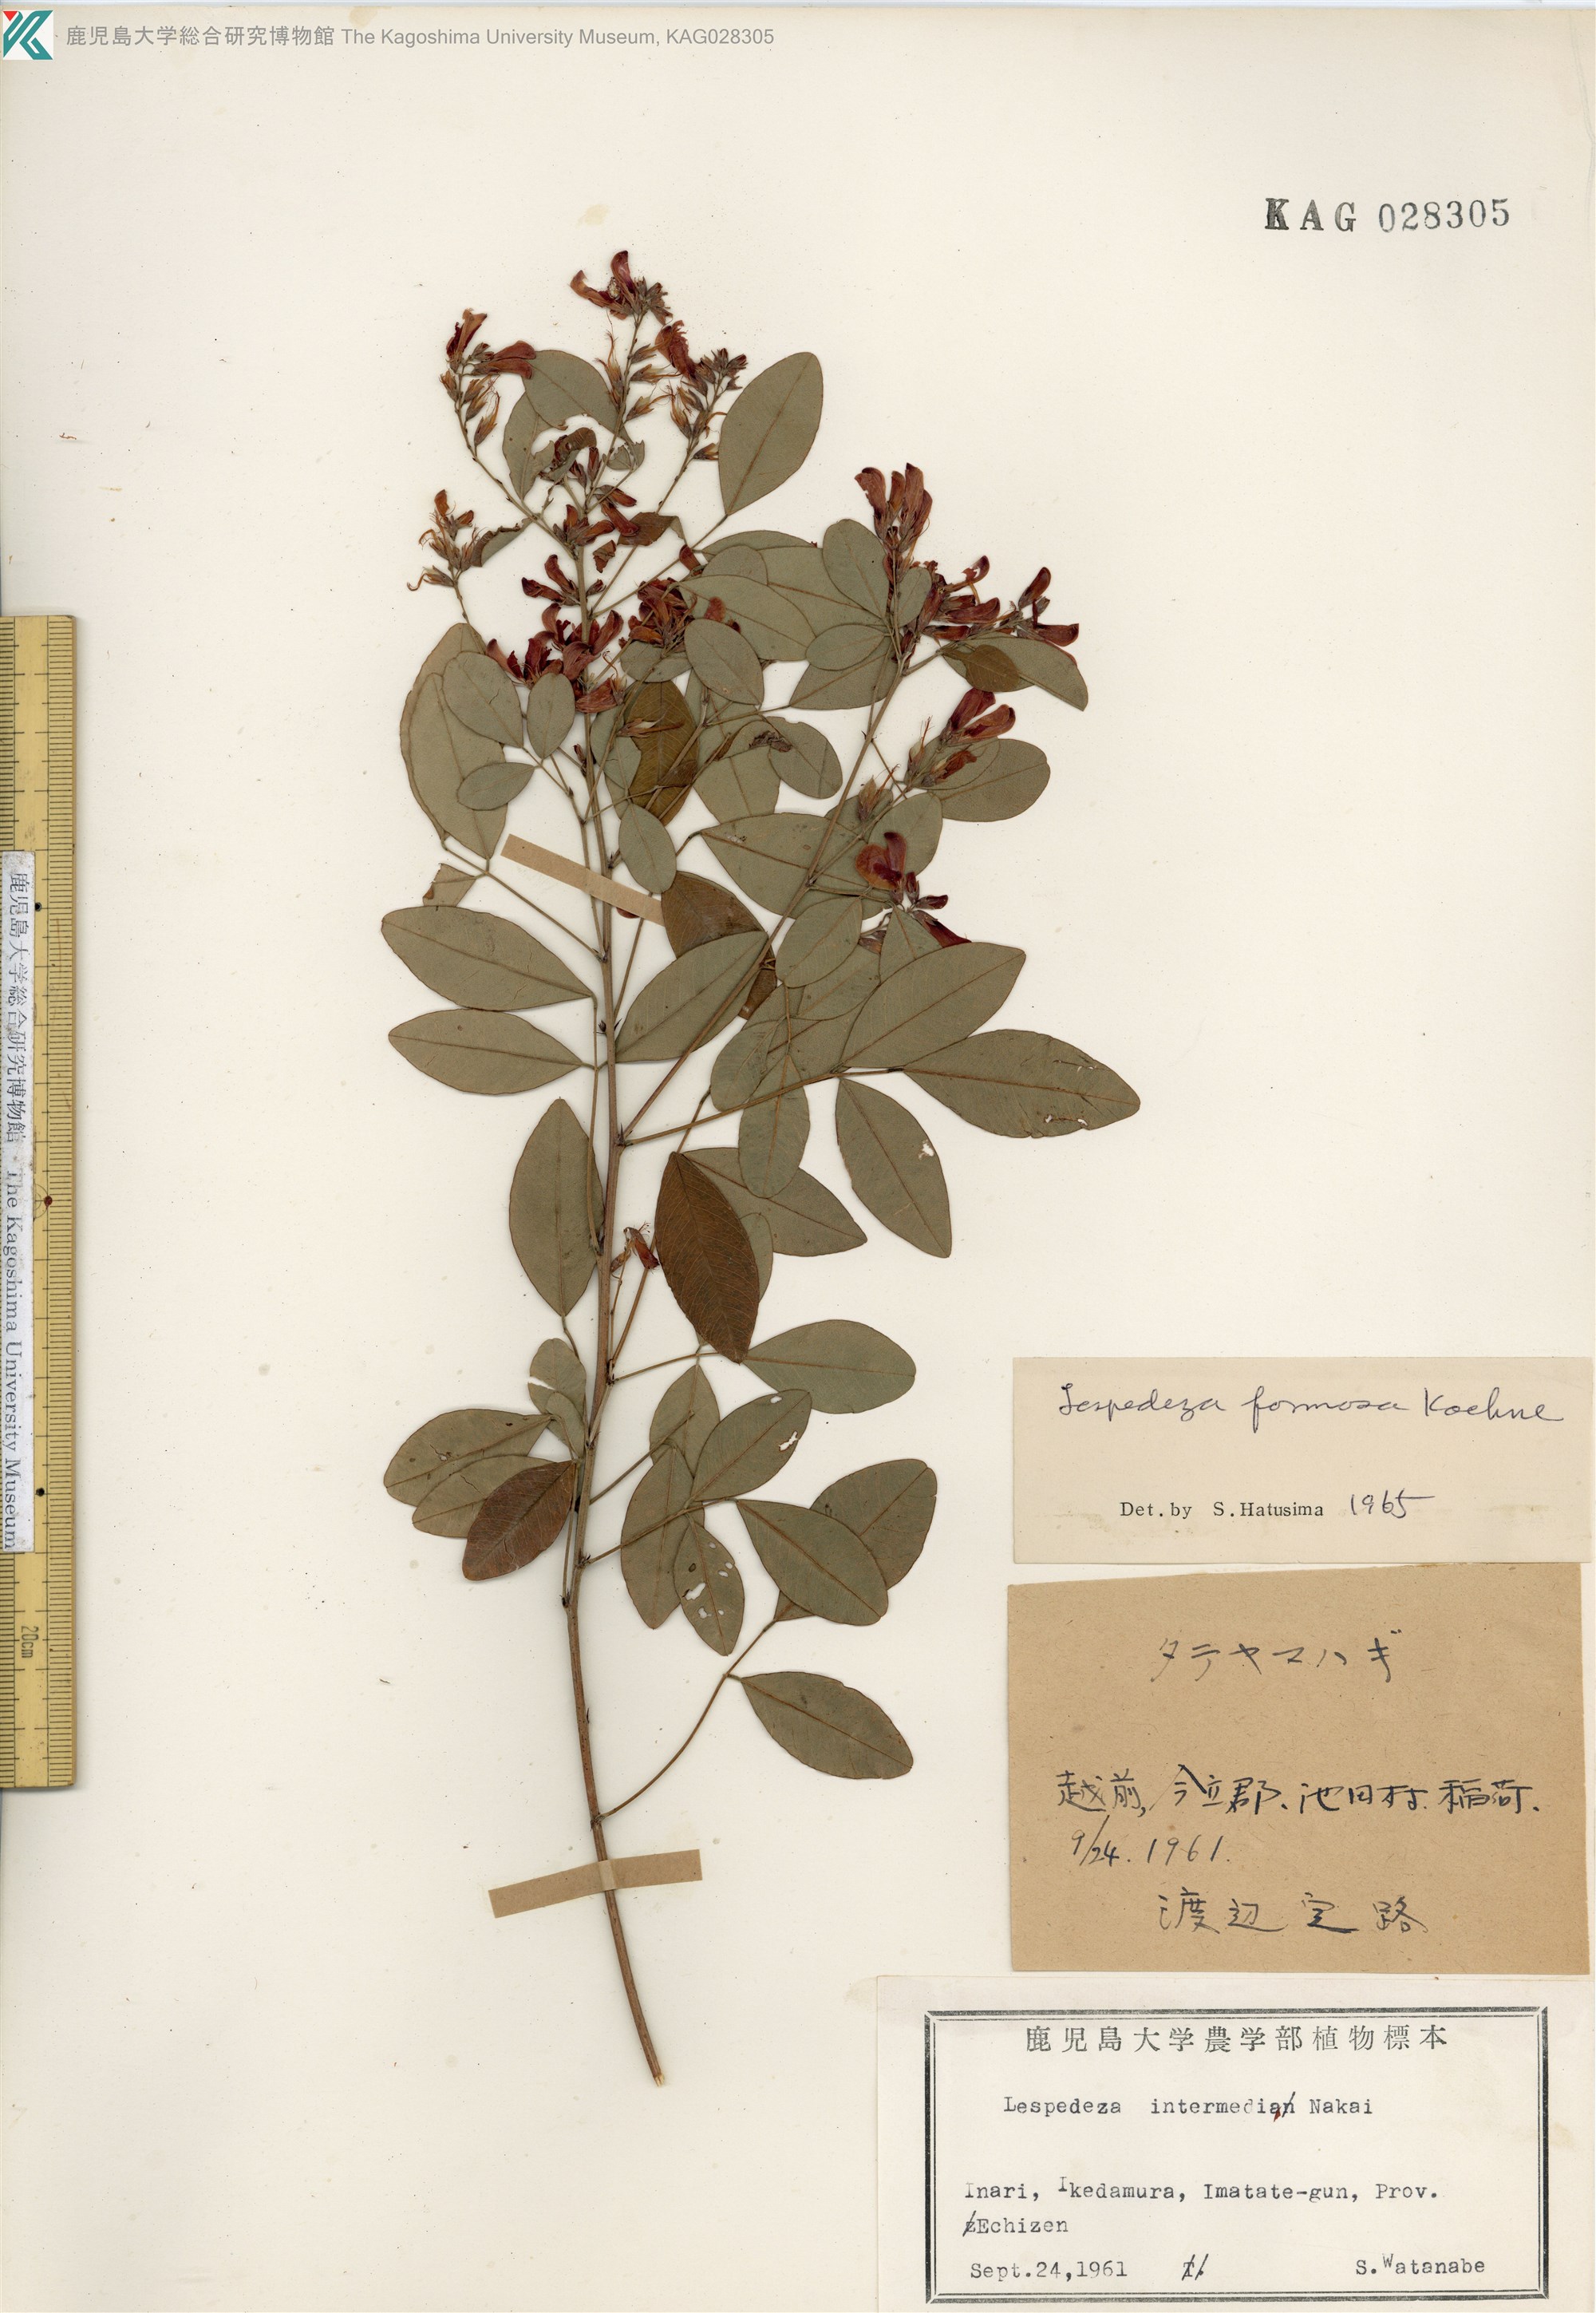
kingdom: Plantae
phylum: Tracheophyta
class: Magnoliopsida
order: Fabales
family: Fabaceae
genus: Lespedeza
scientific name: Lespedeza thunbergii
